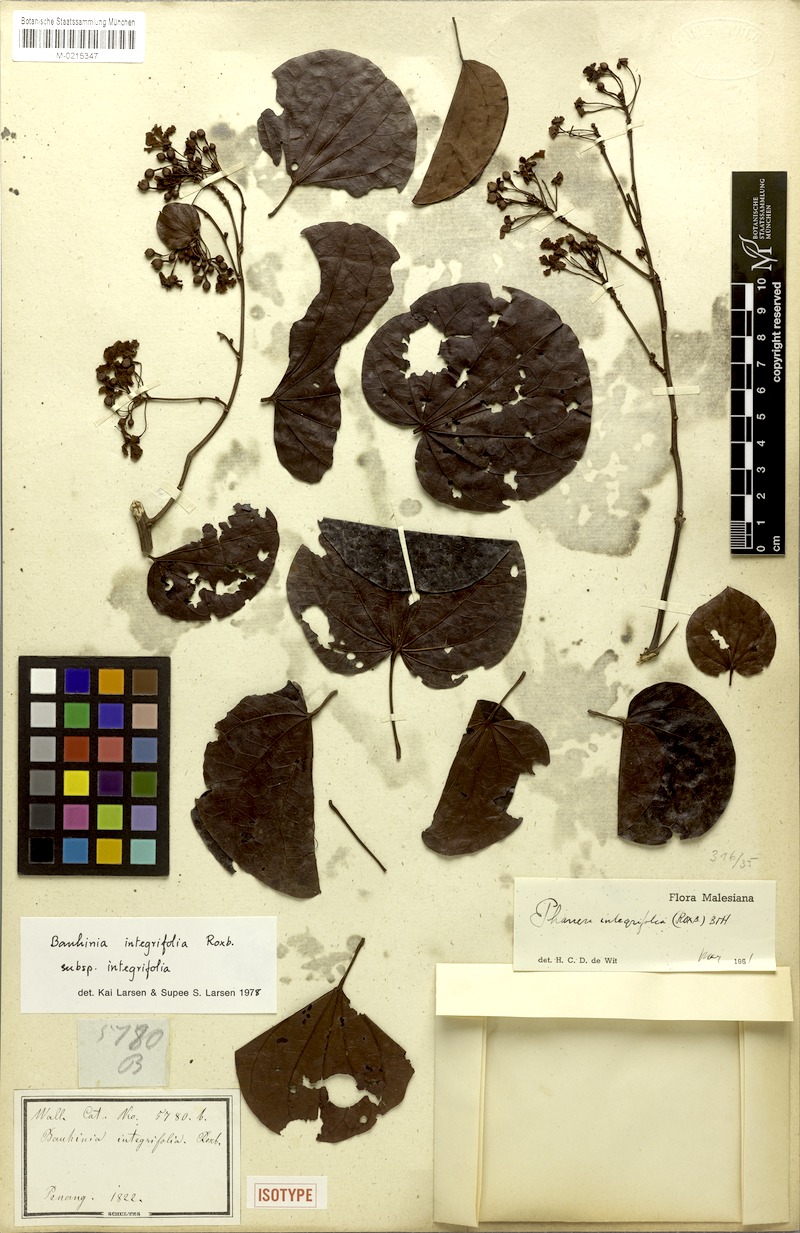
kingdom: Plantae
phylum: Tracheophyta
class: Magnoliopsida
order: Fabales
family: Fabaceae
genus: Phanera
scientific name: Phanera integrifolia
